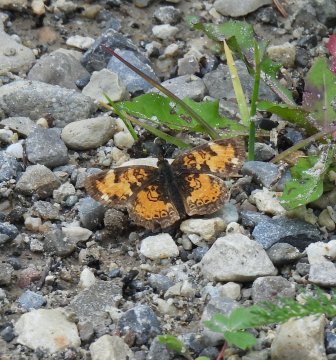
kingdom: Animalia
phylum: Arthropoda
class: Insecta
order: Lepidoptera
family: Nymphalidae
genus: Phyciodes
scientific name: Phyciodes tharos
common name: Northern Crescent
